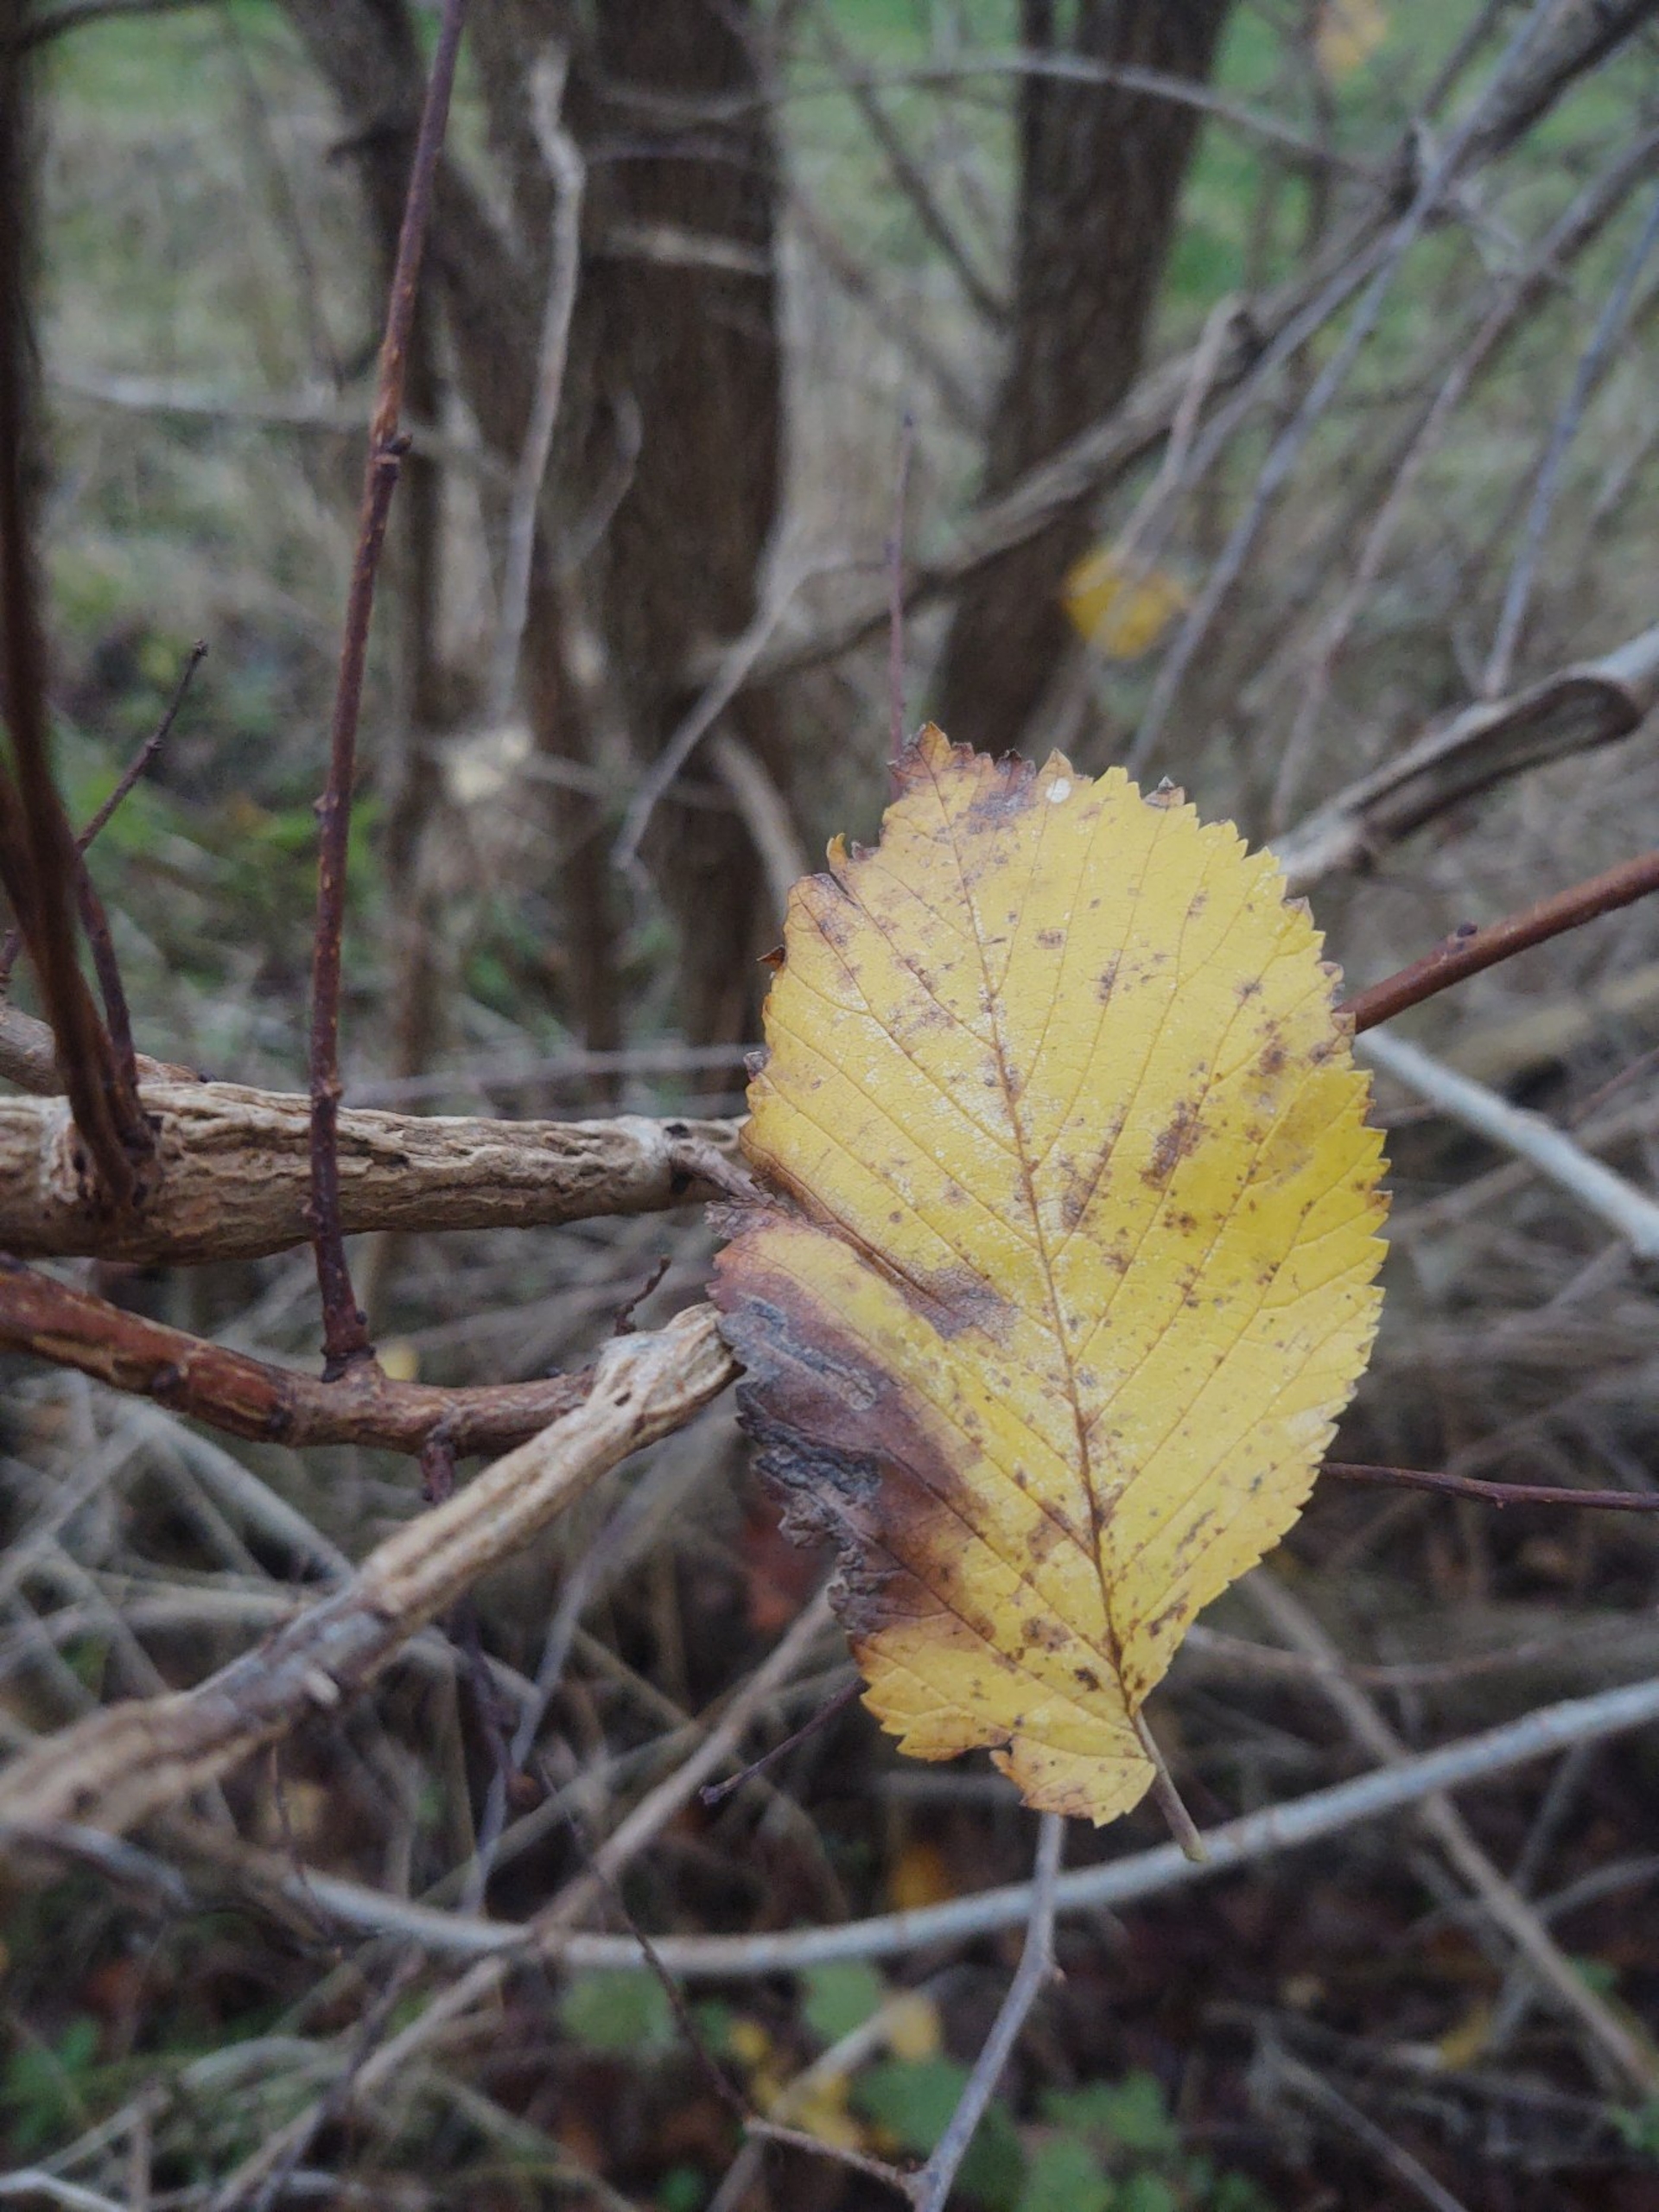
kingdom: Plantae
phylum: Tracheophyta
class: Magnoliopsida
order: Rosales
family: Ulmaceae
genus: Ulmus
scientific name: Ulmus minor
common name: Småbladet elm
